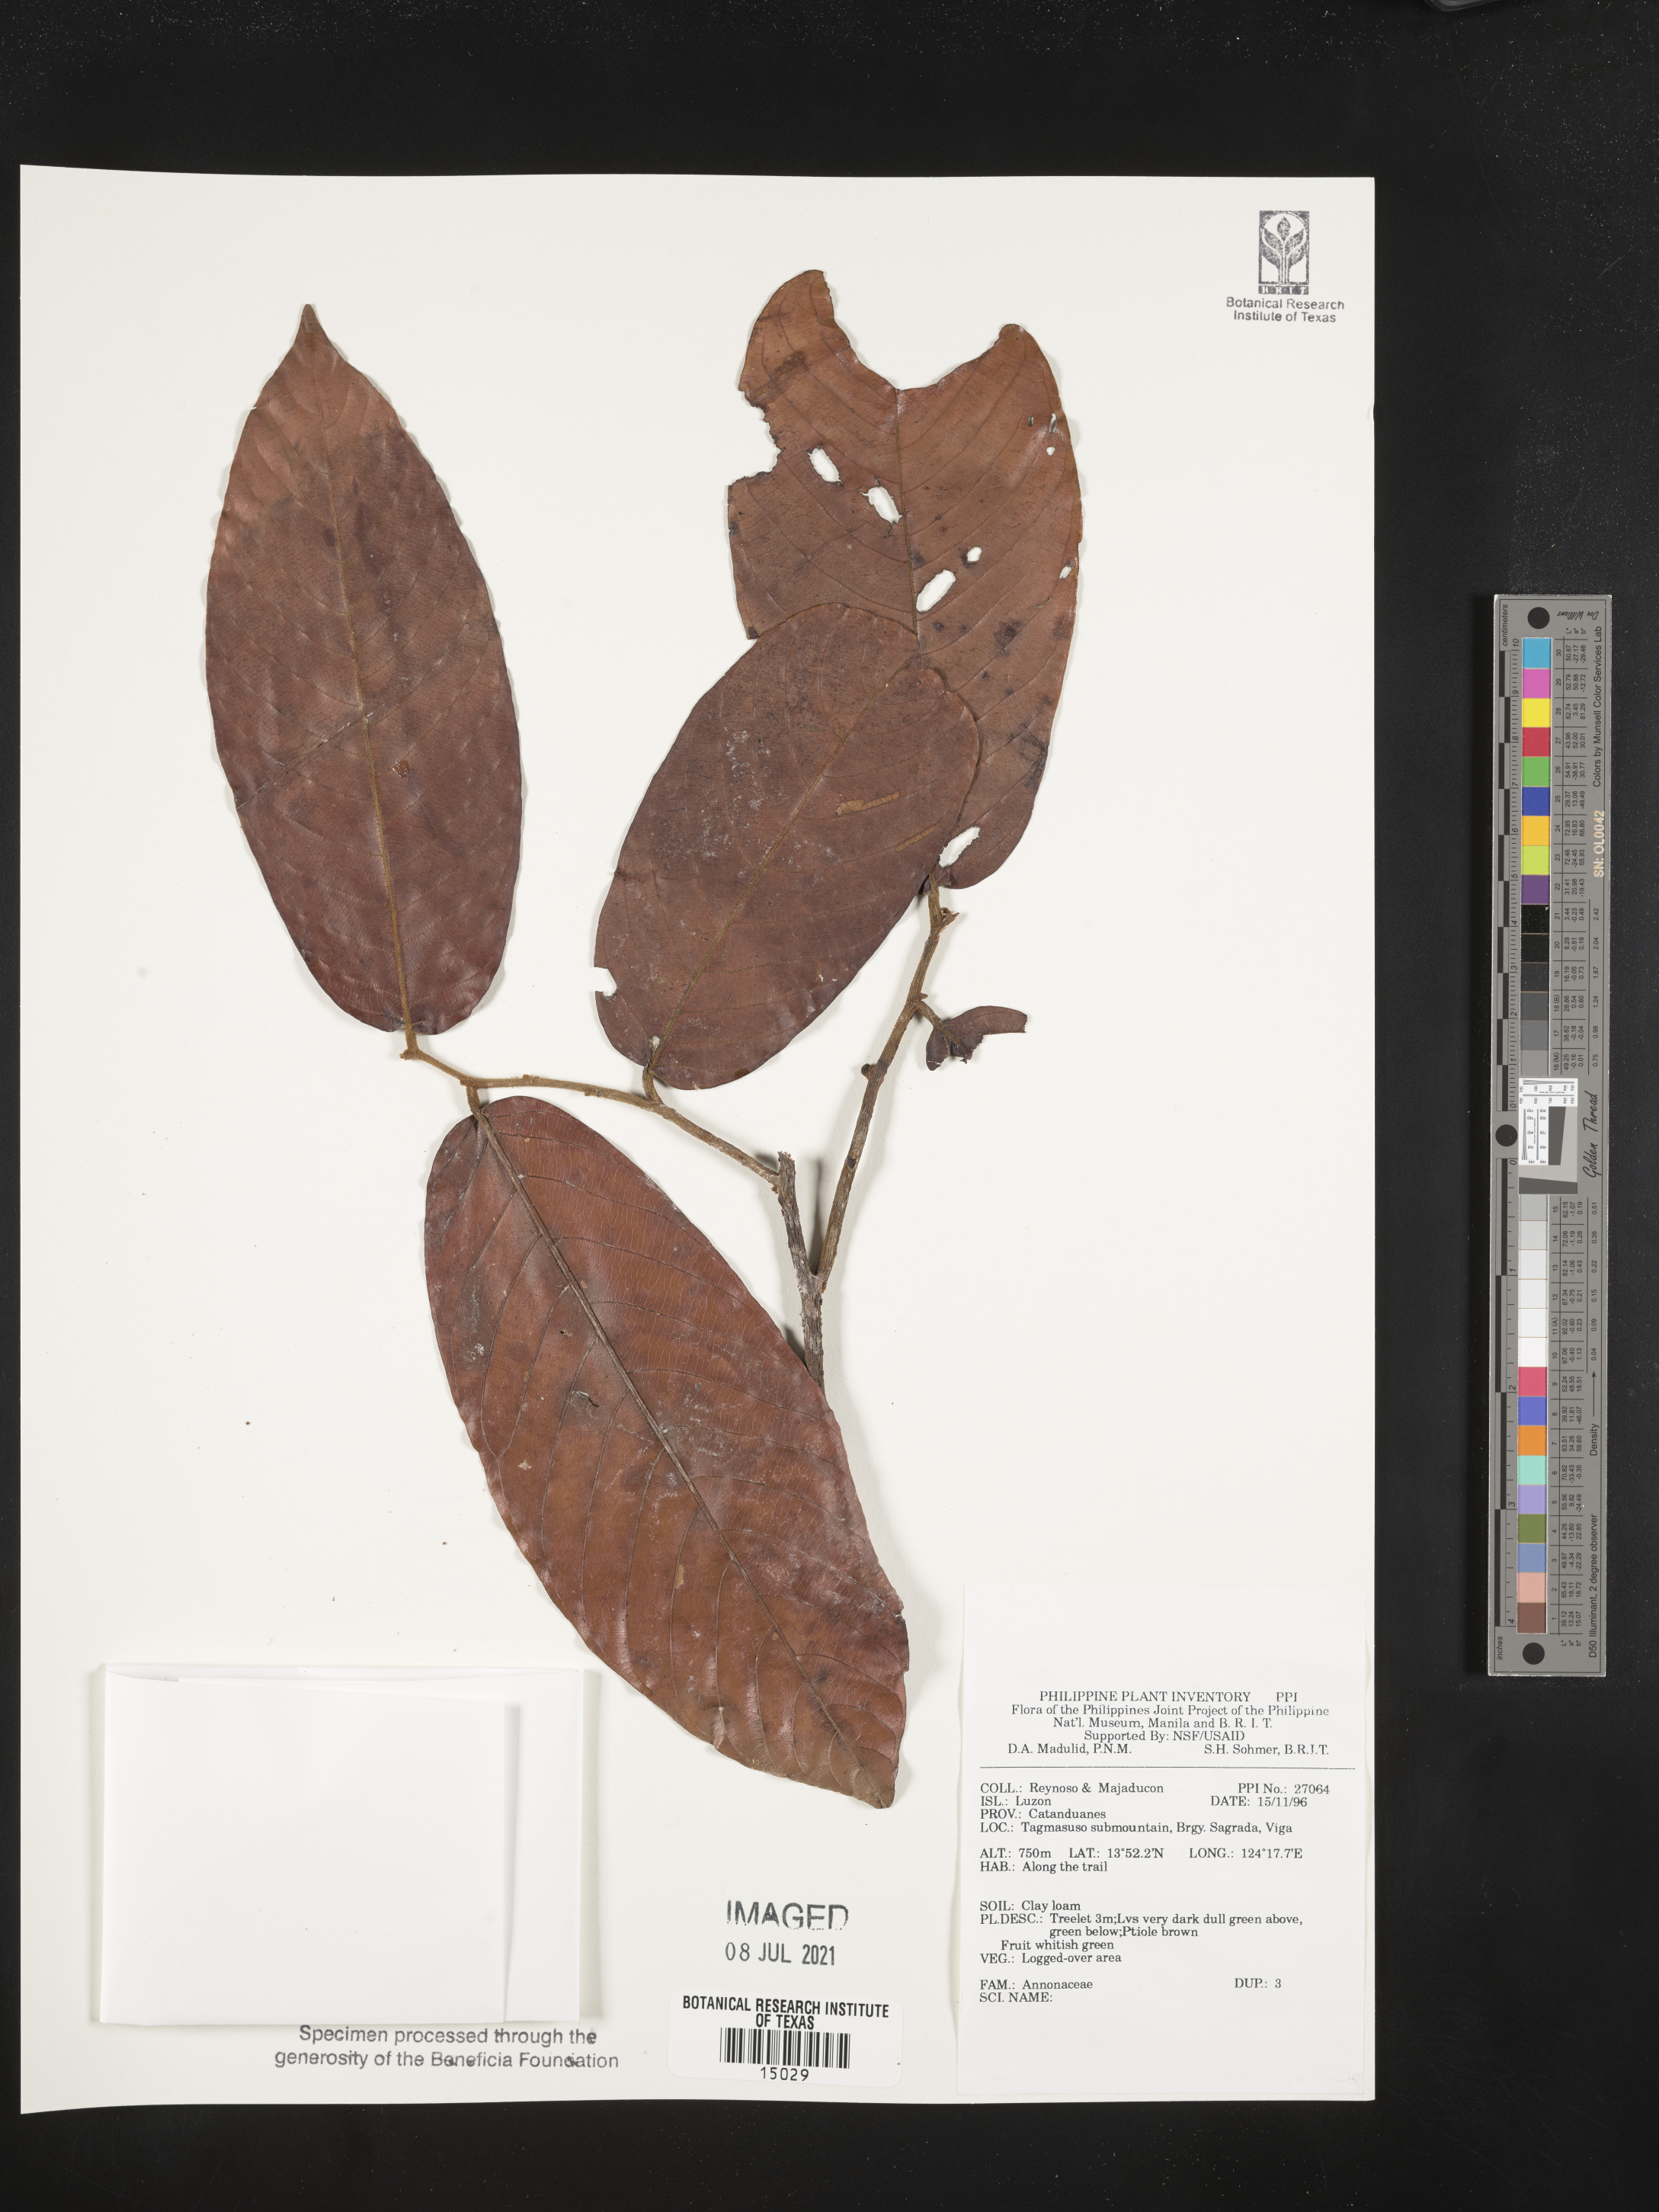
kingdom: Plantae
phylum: Tracheophyta
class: Magnoliopsida
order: Magnoliales
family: Annonaceae
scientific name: Annonaceae
